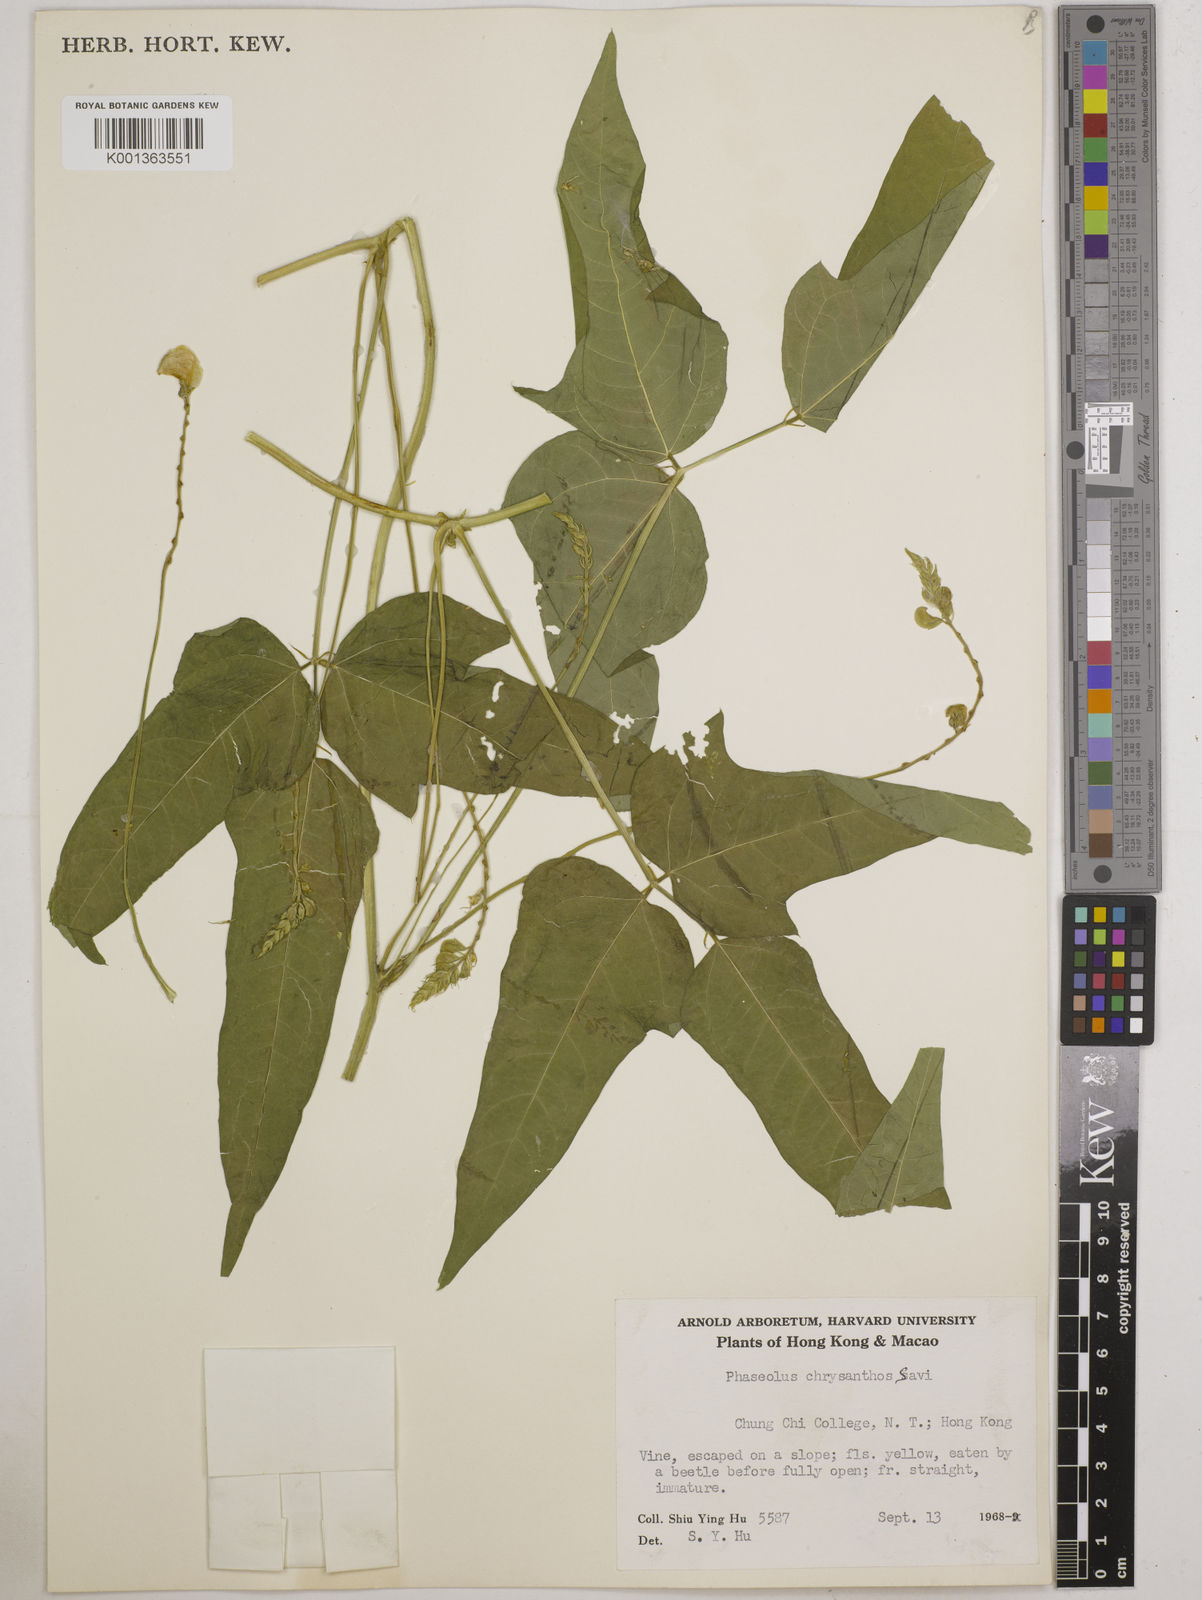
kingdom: Plantae
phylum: Tracheophyta
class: Magnoliopsida
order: Fabales
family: Fabaceae
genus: Vigna
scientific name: Vigna umbellata
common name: Oriental-bean
